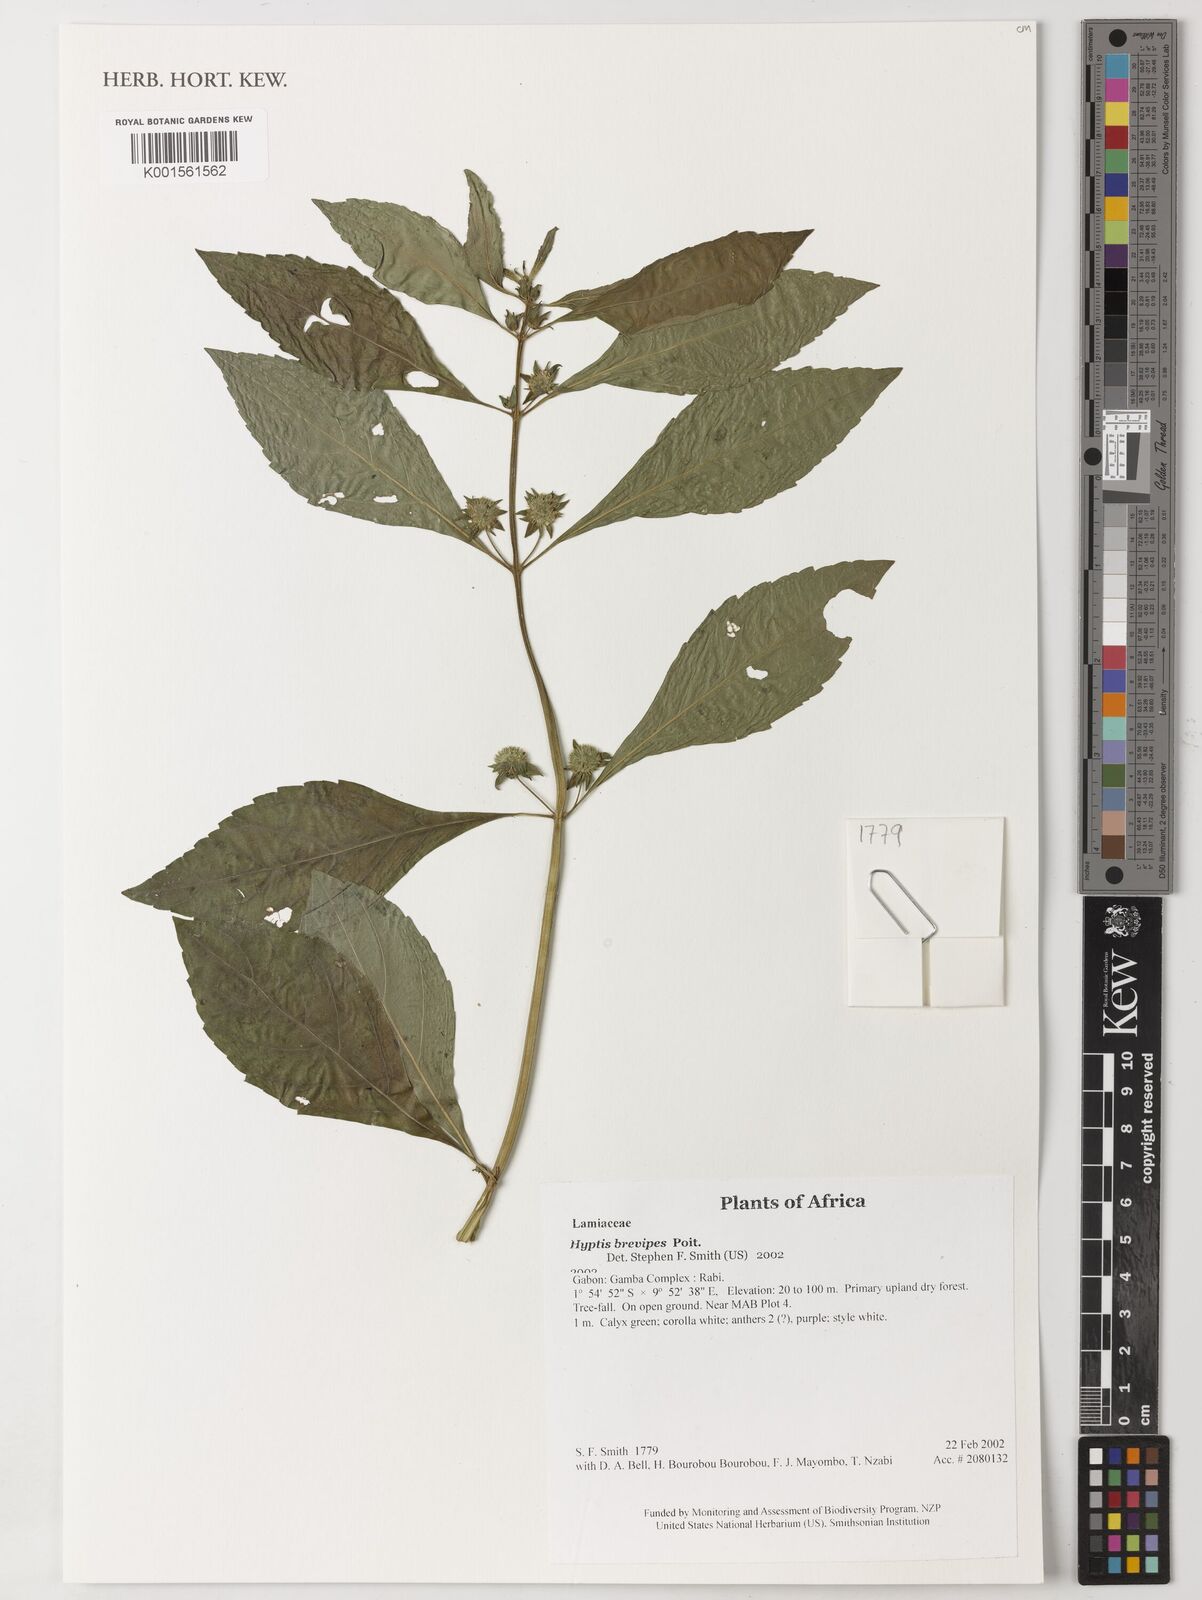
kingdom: Plantae
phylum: Tracheophyta
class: Magnoliopsida
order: Lamiales
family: Lamiaceae
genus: Hyptis
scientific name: Hyptis brevipes
